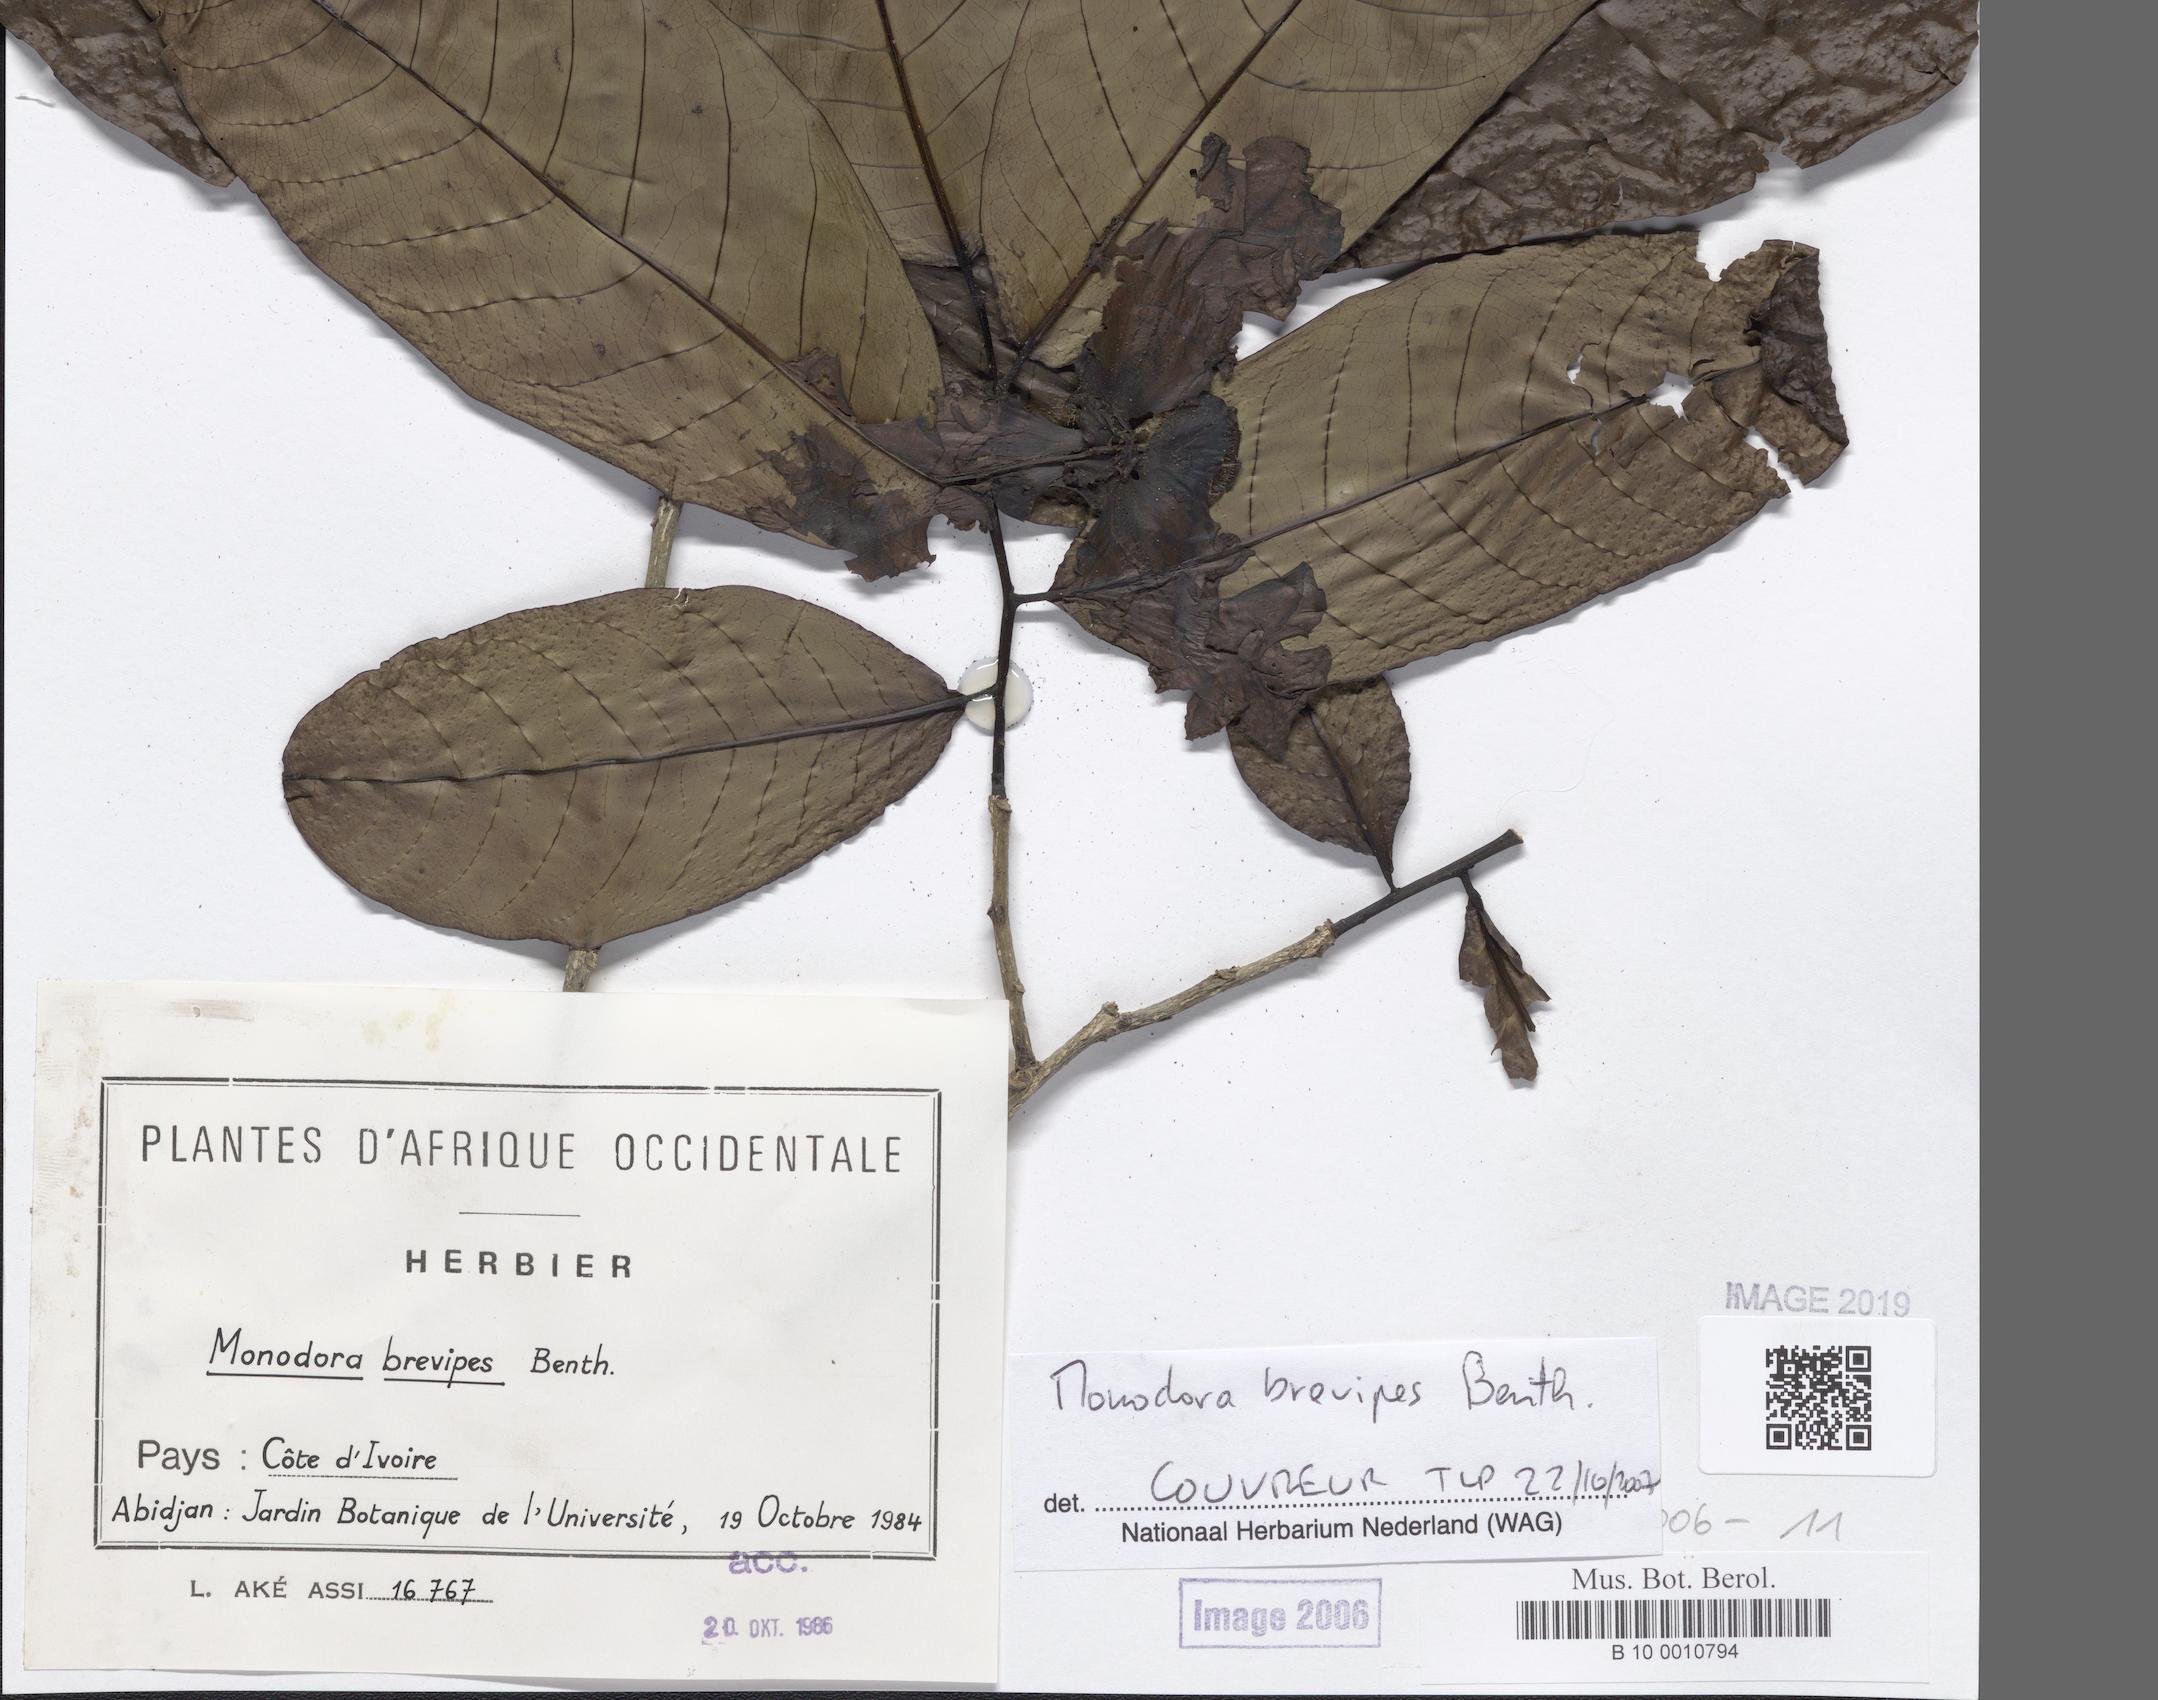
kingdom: Plantae
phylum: Tracheophyta
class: Magnoliopsida
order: Magnoliales
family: Annonaceae
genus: Monodora
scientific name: Monodora undulata
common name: Yellow-flower-nutmeg
